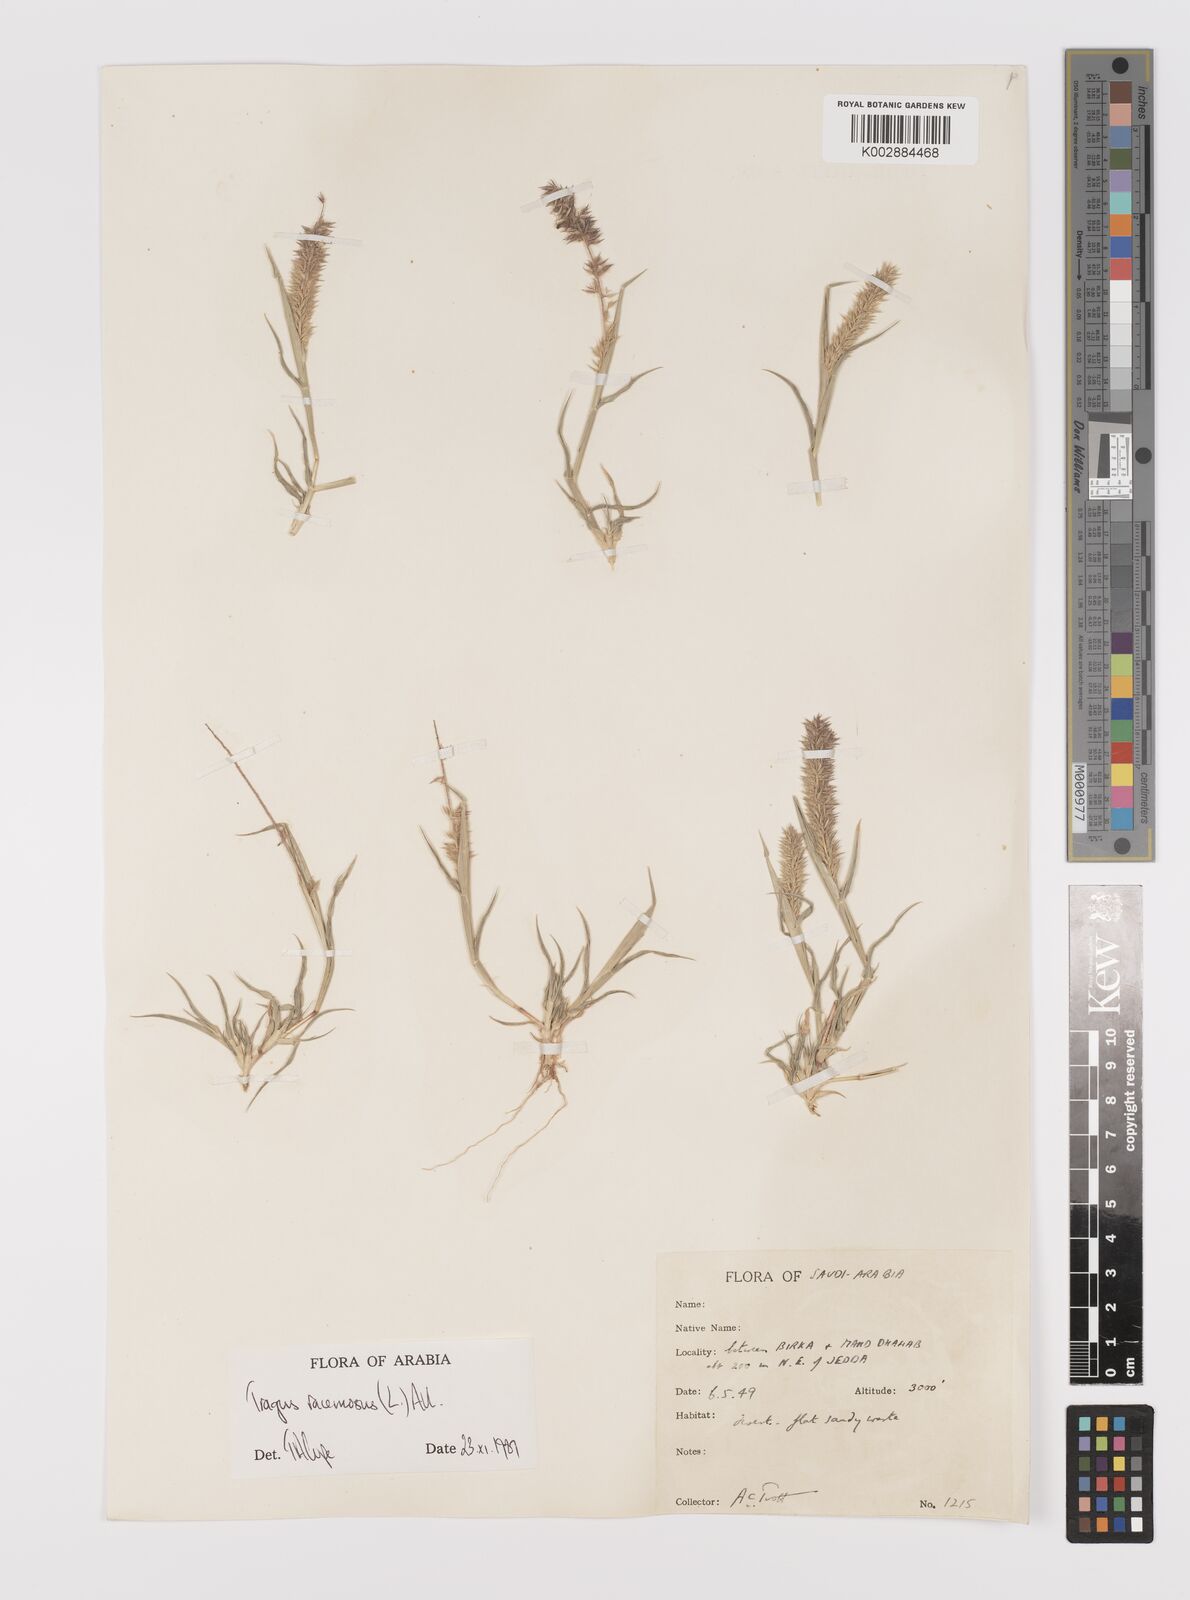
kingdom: Plantae
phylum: Tracheophyta
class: Liliopsida
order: Poales
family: Poaceae
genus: Tragus
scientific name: Tragus racemosus
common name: European bur-grass
